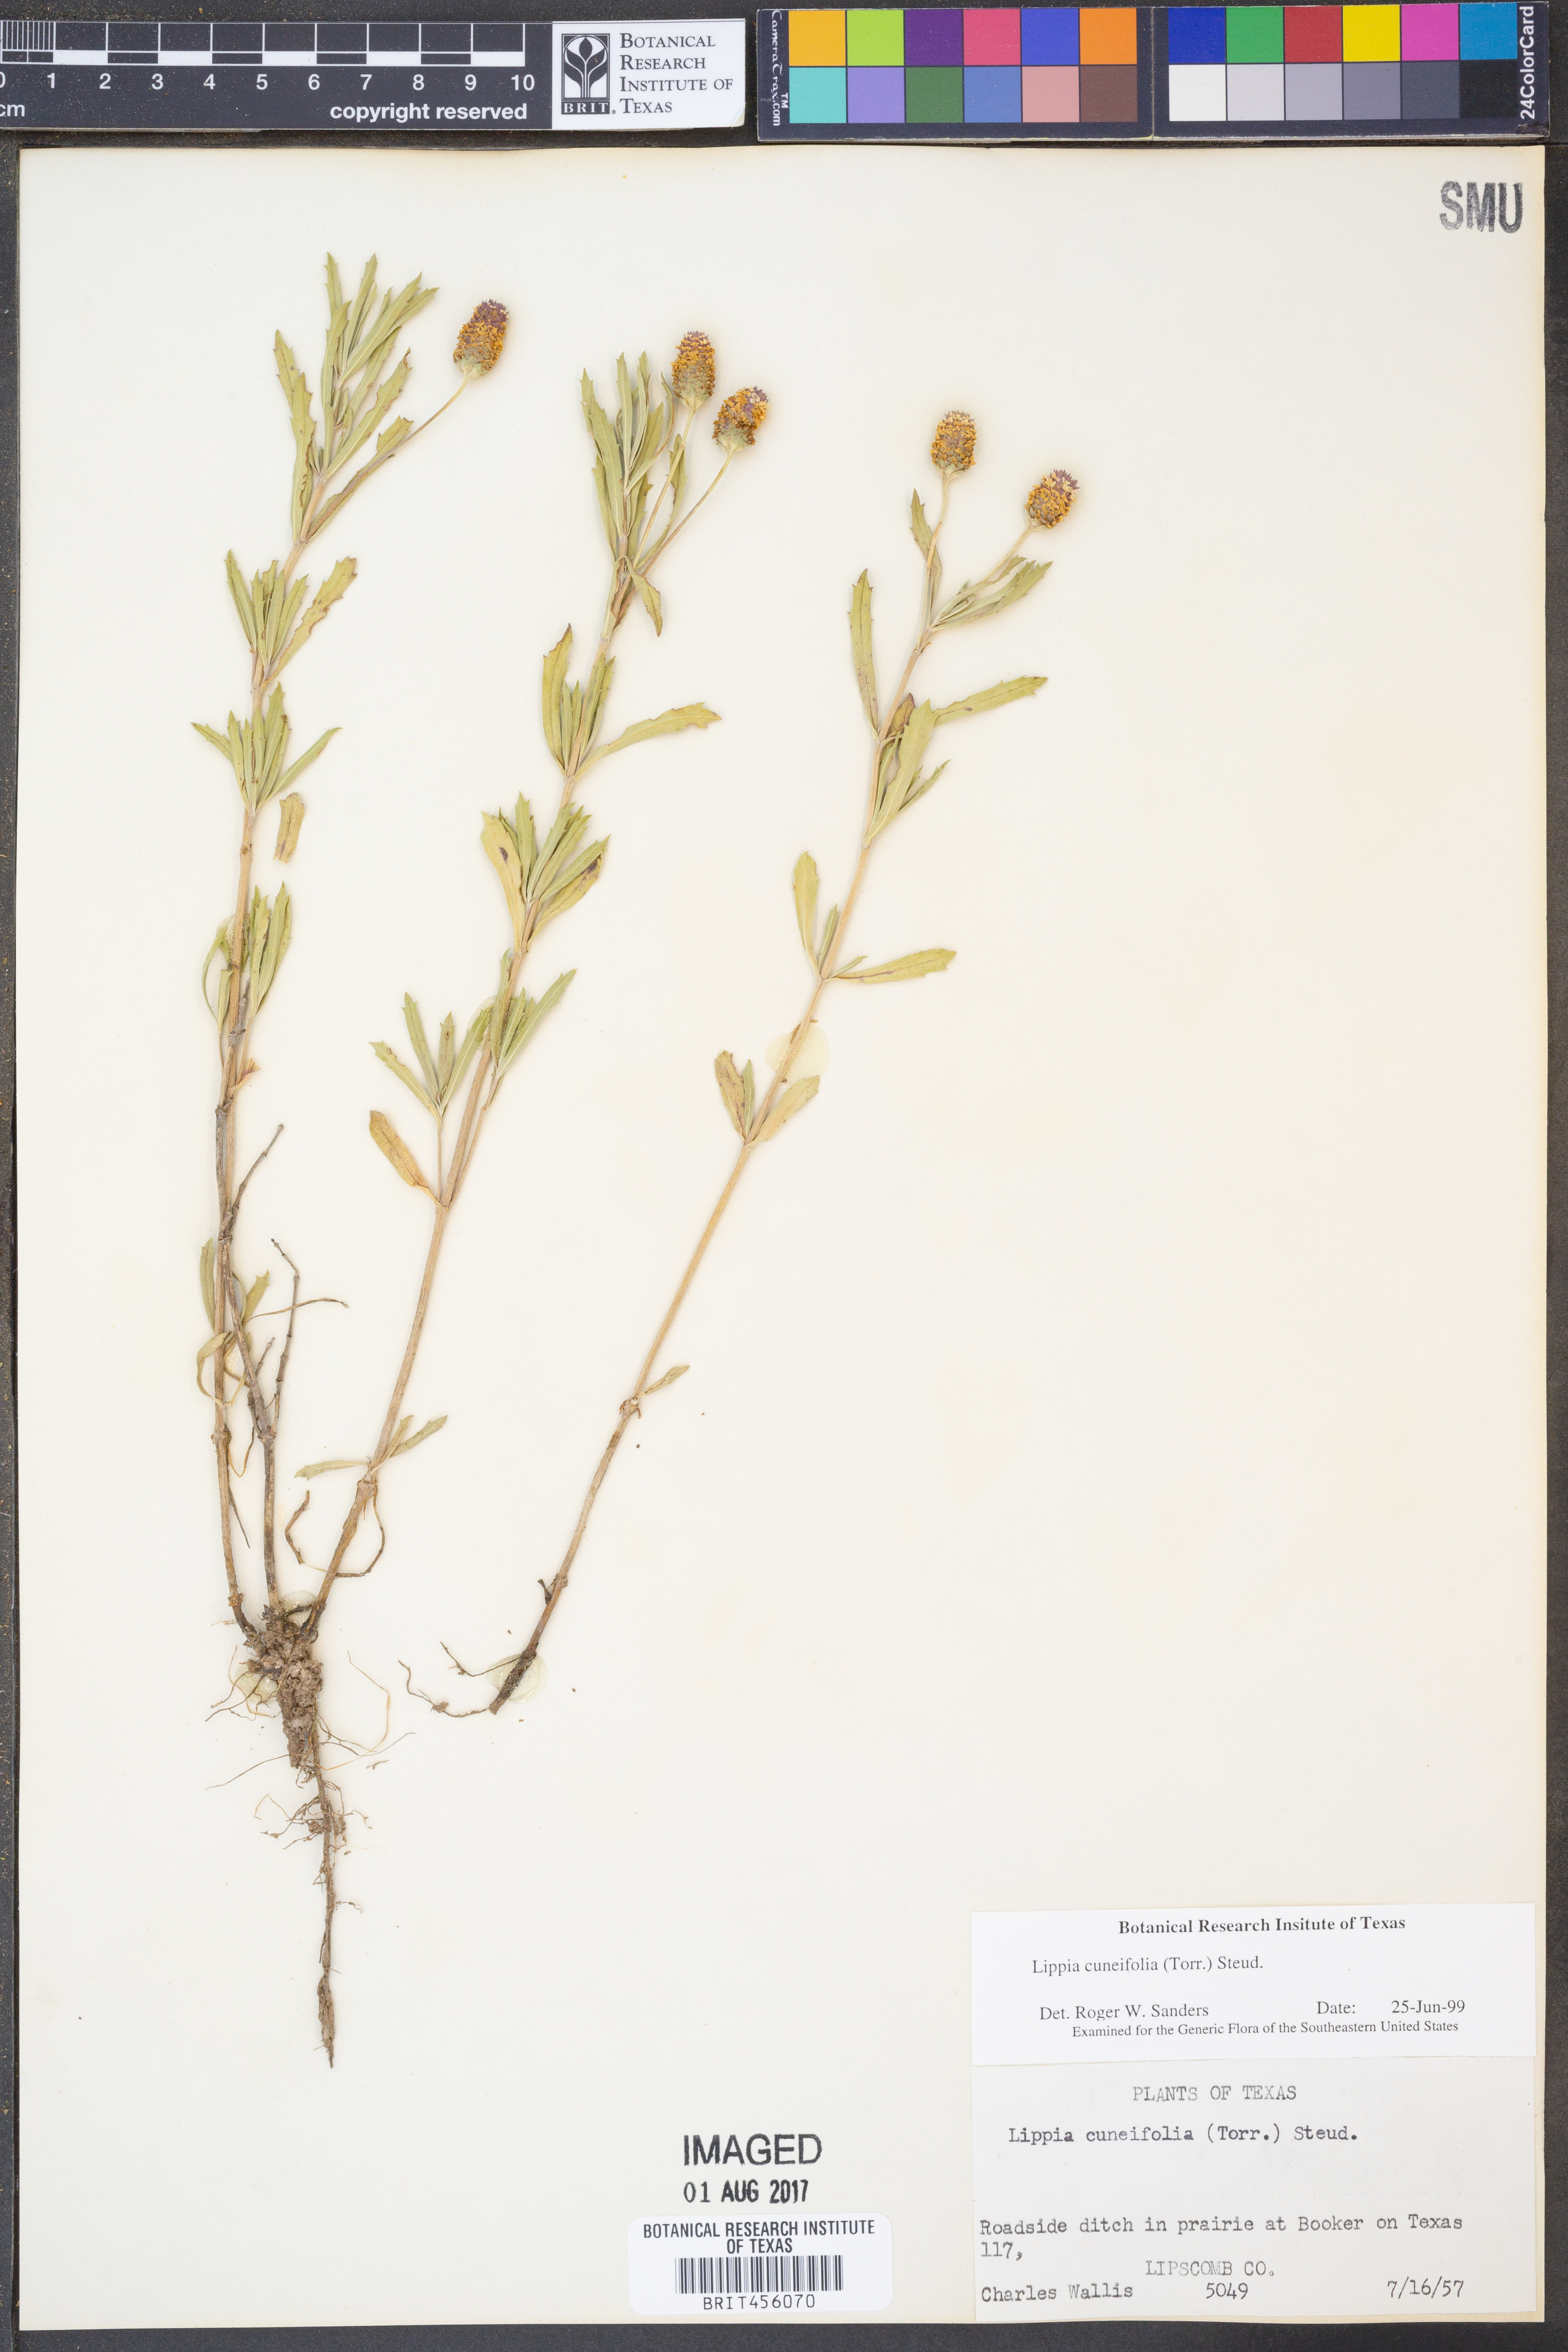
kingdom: Plantae
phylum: Tracheophyta
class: Magnoliopsida
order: Lamiales
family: Verbenaceae
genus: Phyla
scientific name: Phyla cuneifolia
